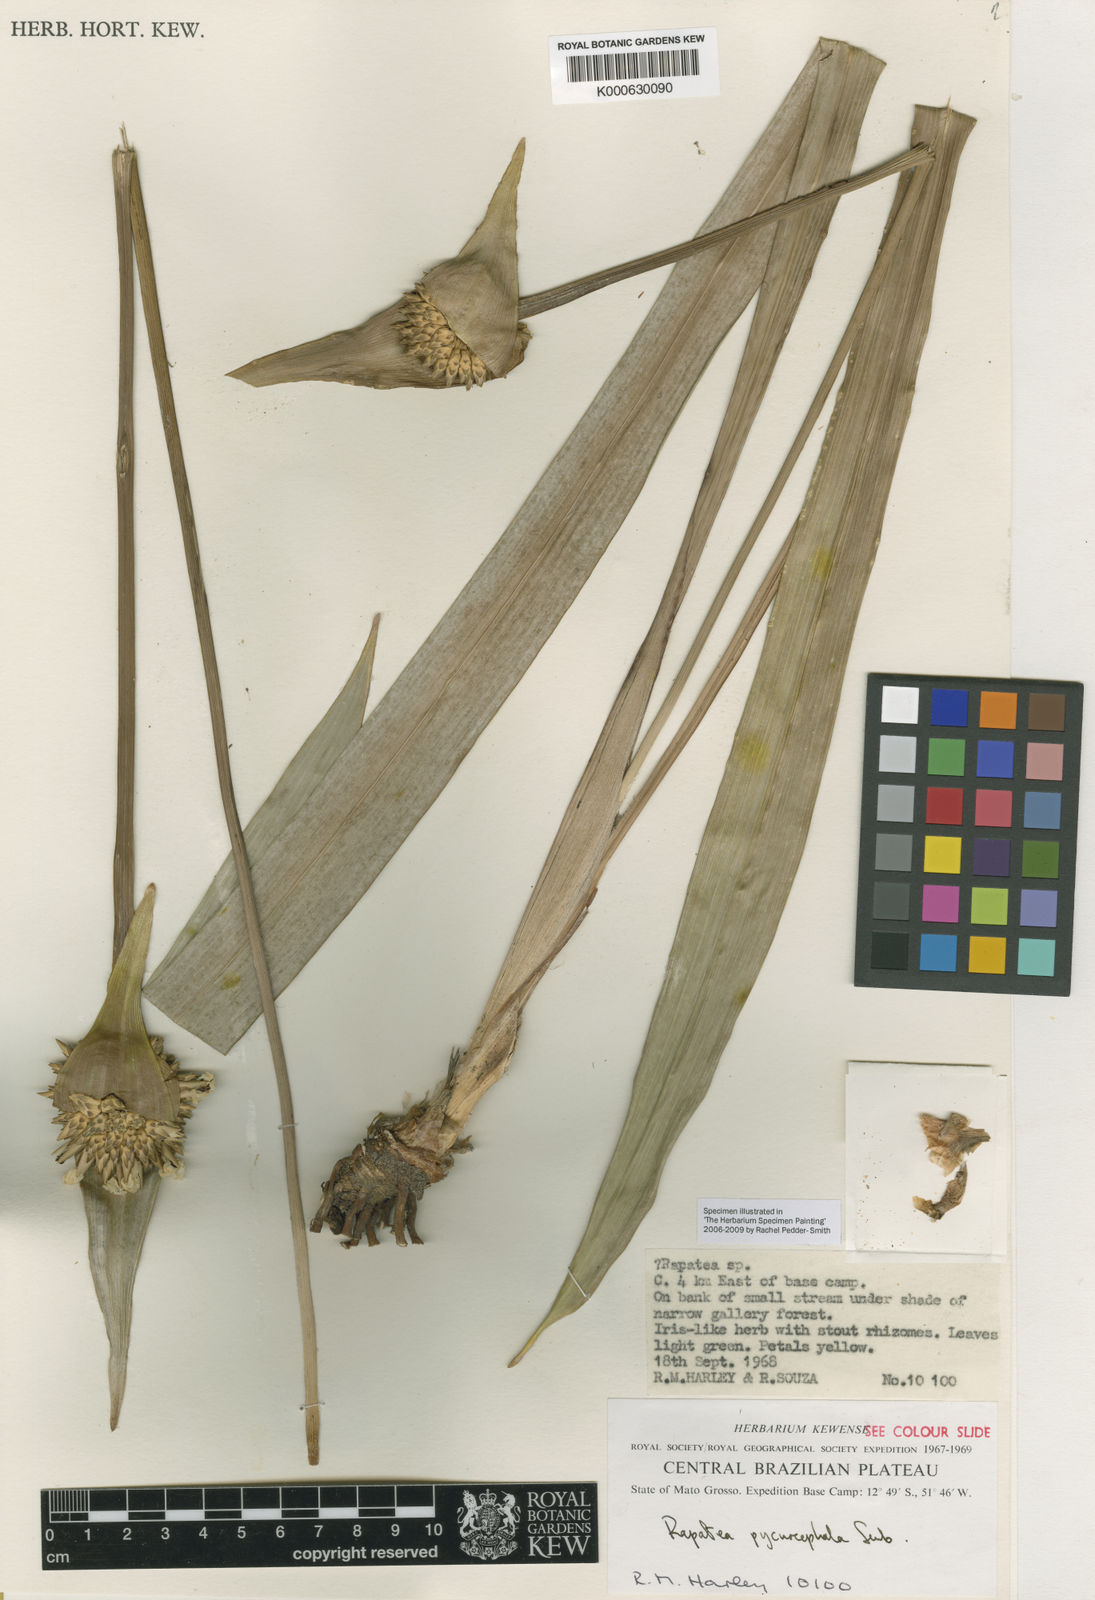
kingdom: Plantae
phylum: Tracheophyta
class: Liliopsida
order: Poales
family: Rapateaceae
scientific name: Rapateaceae
